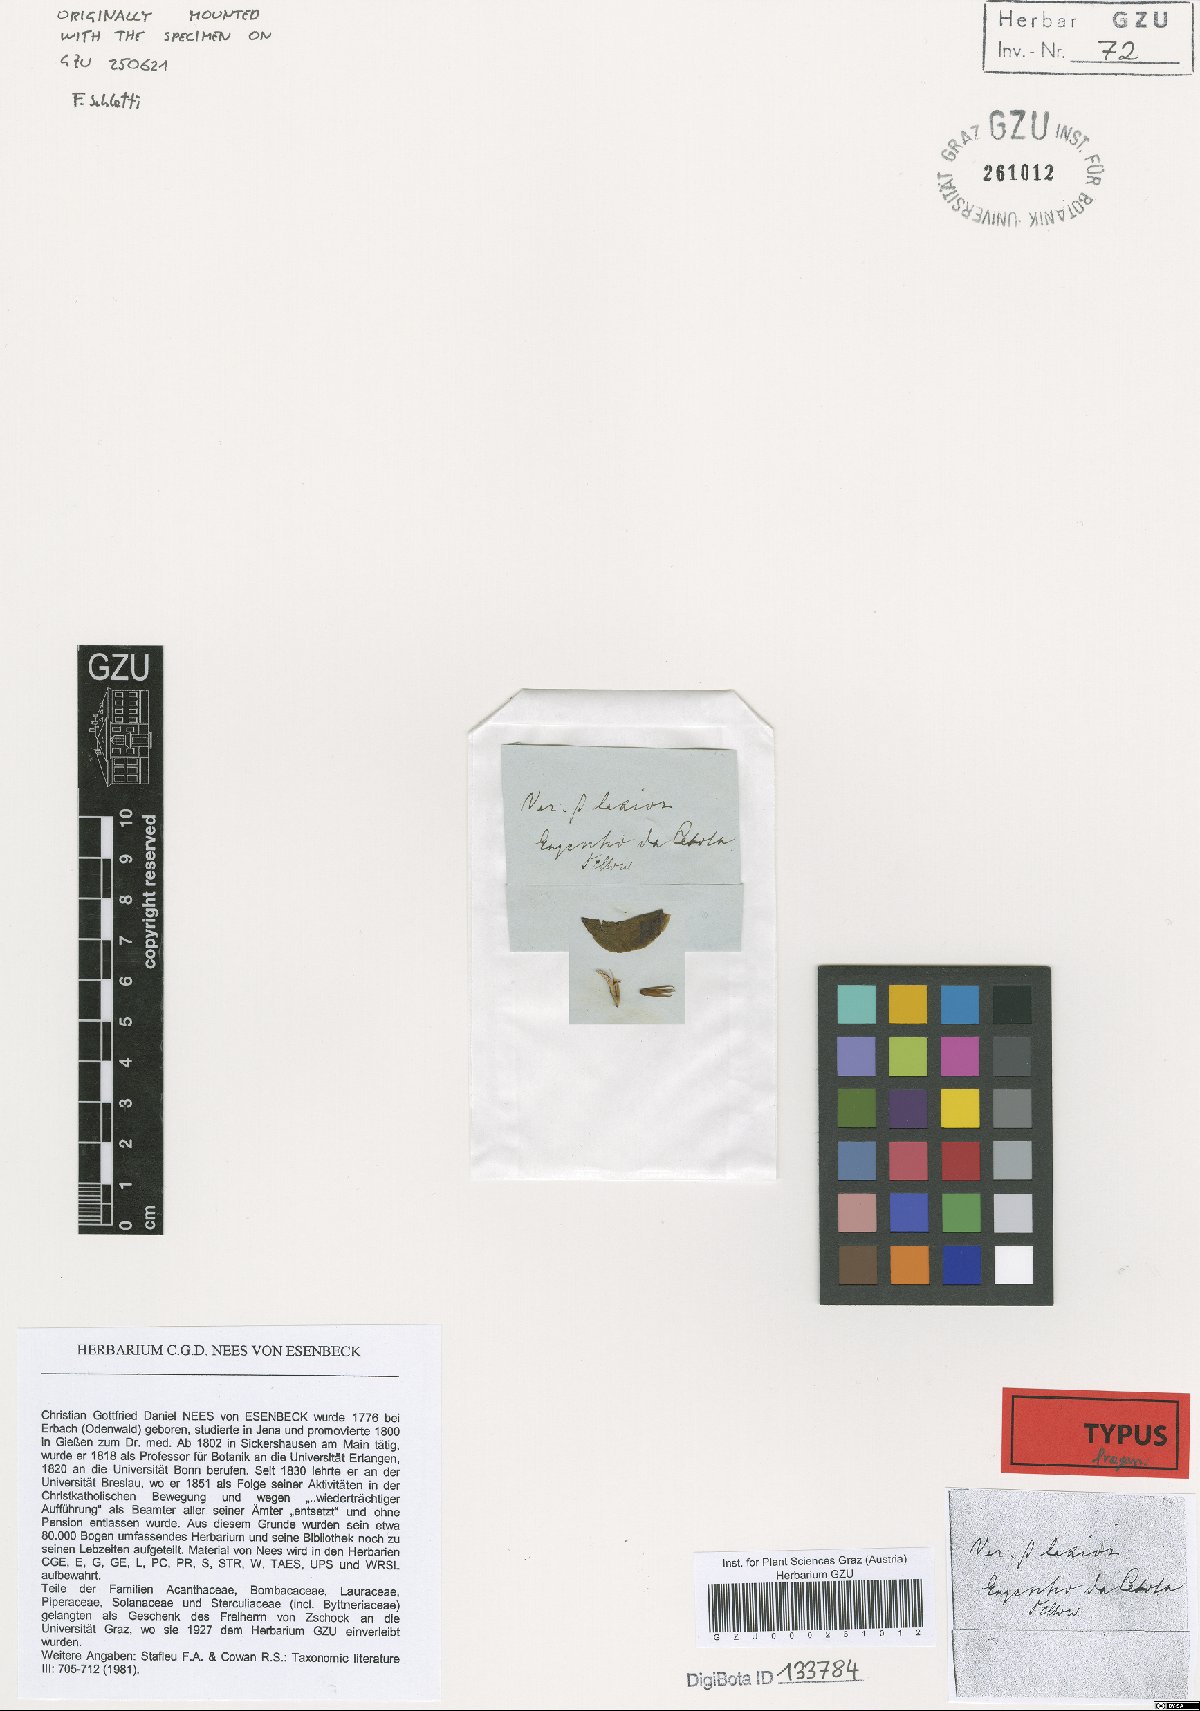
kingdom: Plantae
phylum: Tracheophyta
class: Magnoliopsida
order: Lamiales
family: Acanthaceae
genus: Aphelandra
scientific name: Aphelandra squarrosa
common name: Saffron spike
